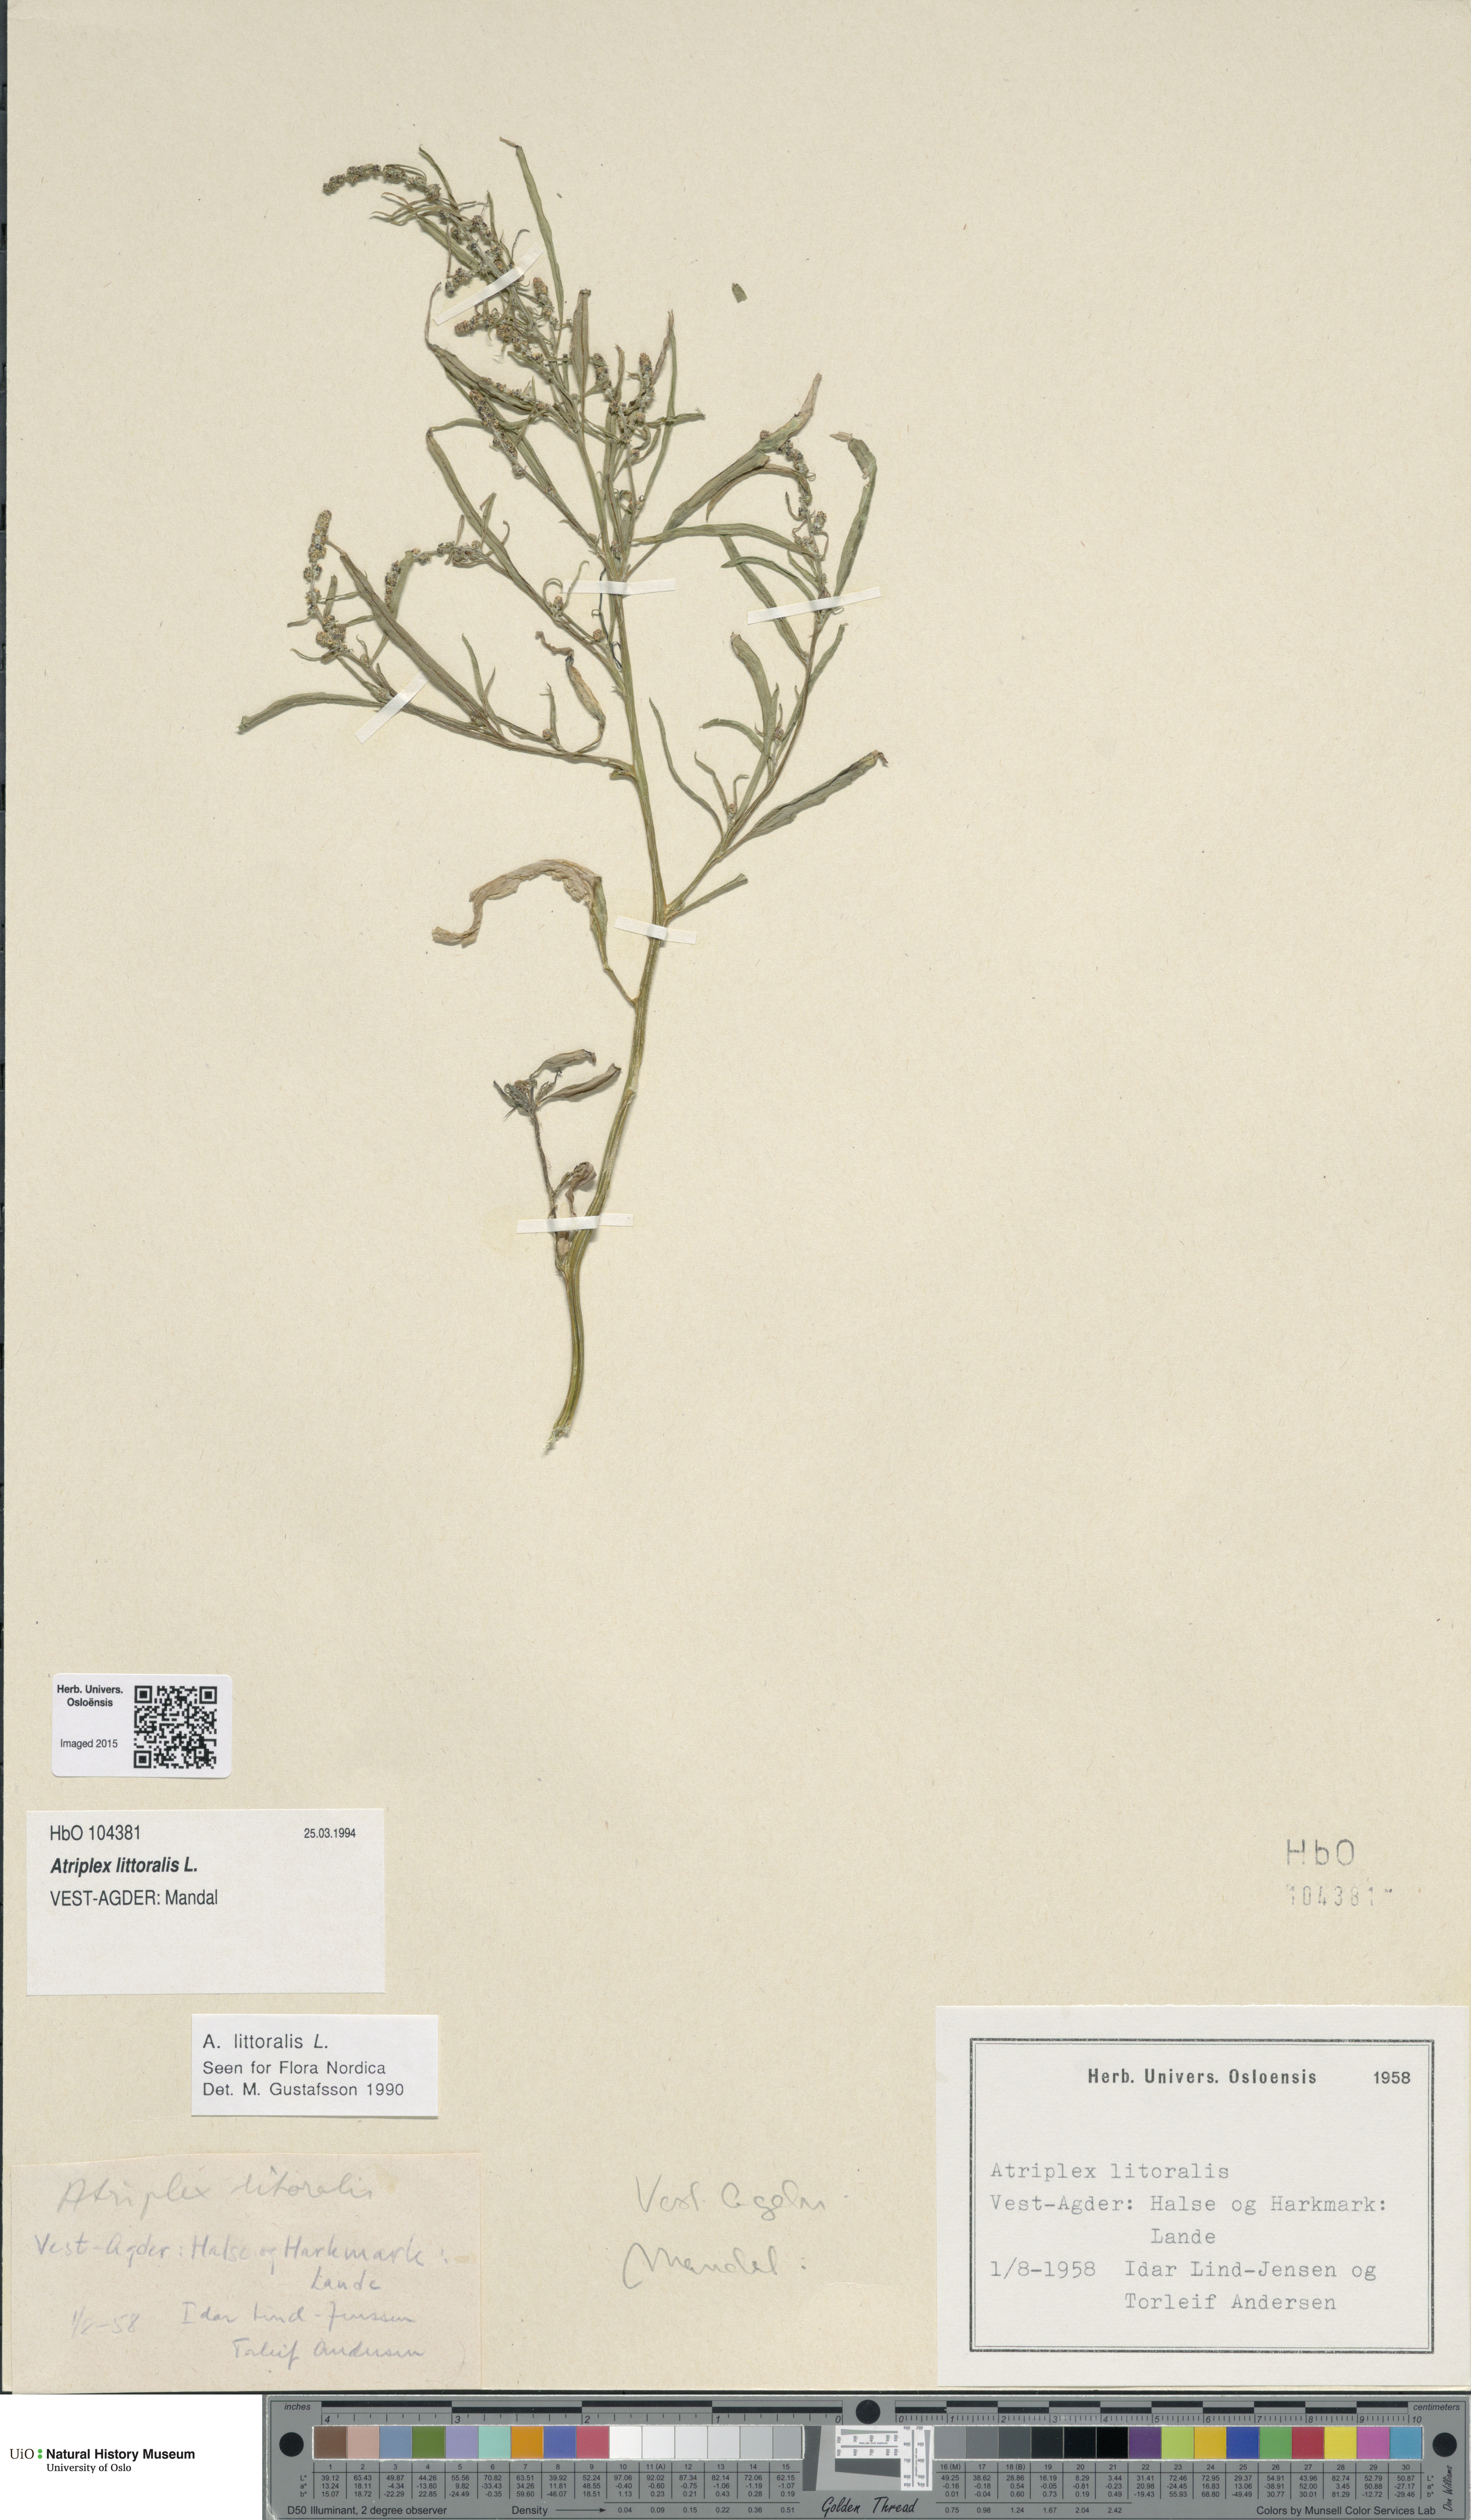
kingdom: Plantae
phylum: Tracheophyta
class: Magnoliopsida
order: Caryophyllales
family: Amaranthaceae
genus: Atriplex
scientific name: Atriplex littoralis
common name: Grass-leaved orache
